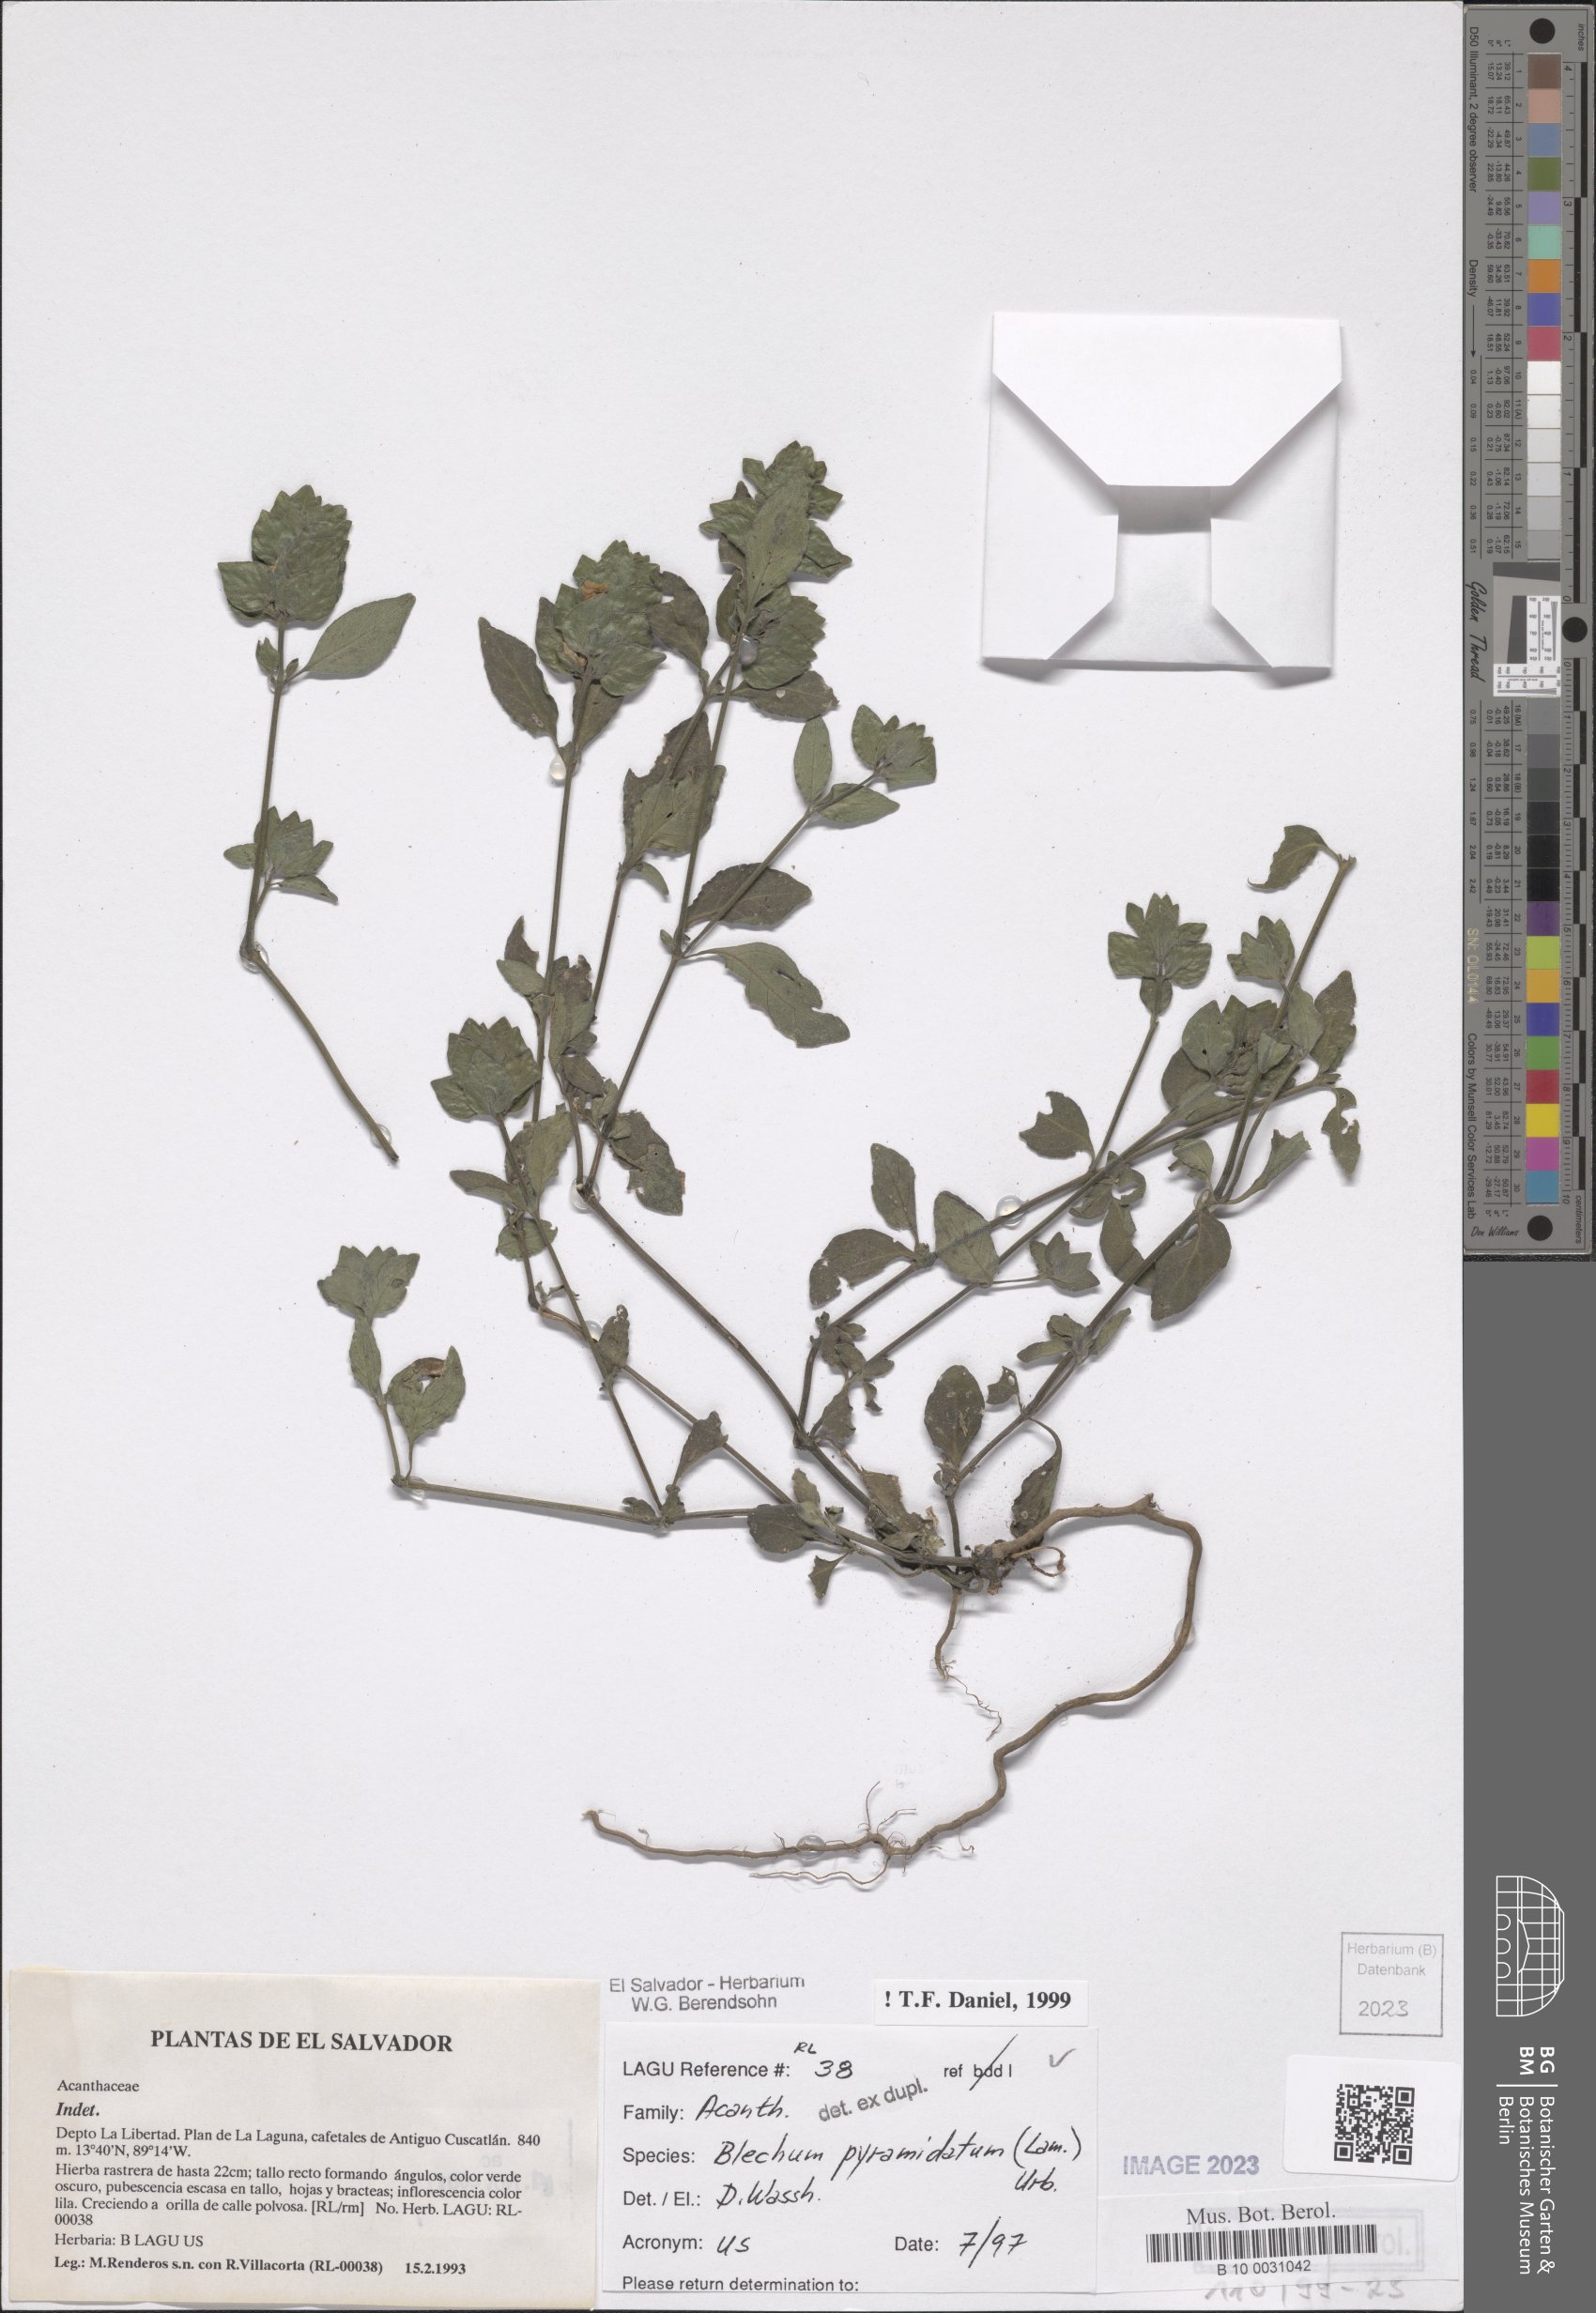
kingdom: Plantae
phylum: Tracheophyta
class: Magnoliopsida
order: Lamiales
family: Acanthaceae
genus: Ruellia
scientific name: Ruellia blechum
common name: Browne's blechum
